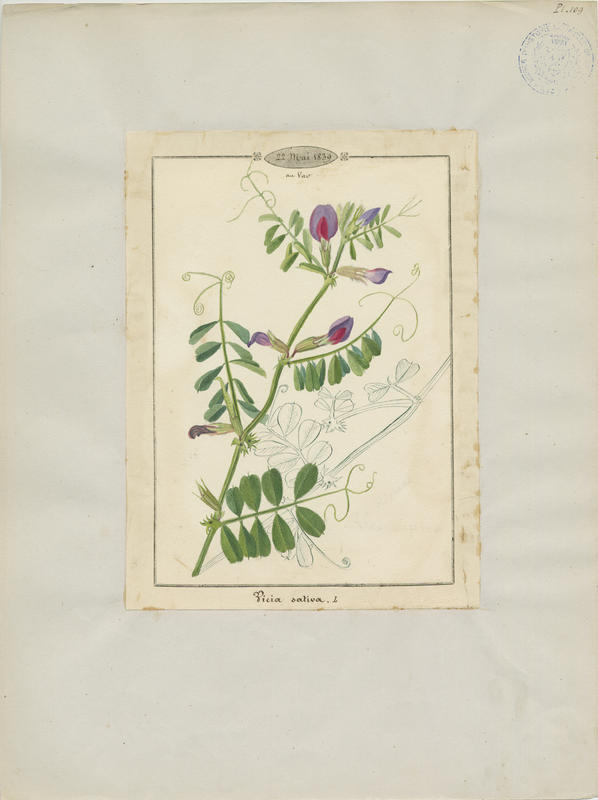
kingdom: Plantae
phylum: Tracheophyta
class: Magnoliopsida
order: Fabales
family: Fabaceae
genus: Vicia
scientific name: Vicia sativa
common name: Garden vetch
